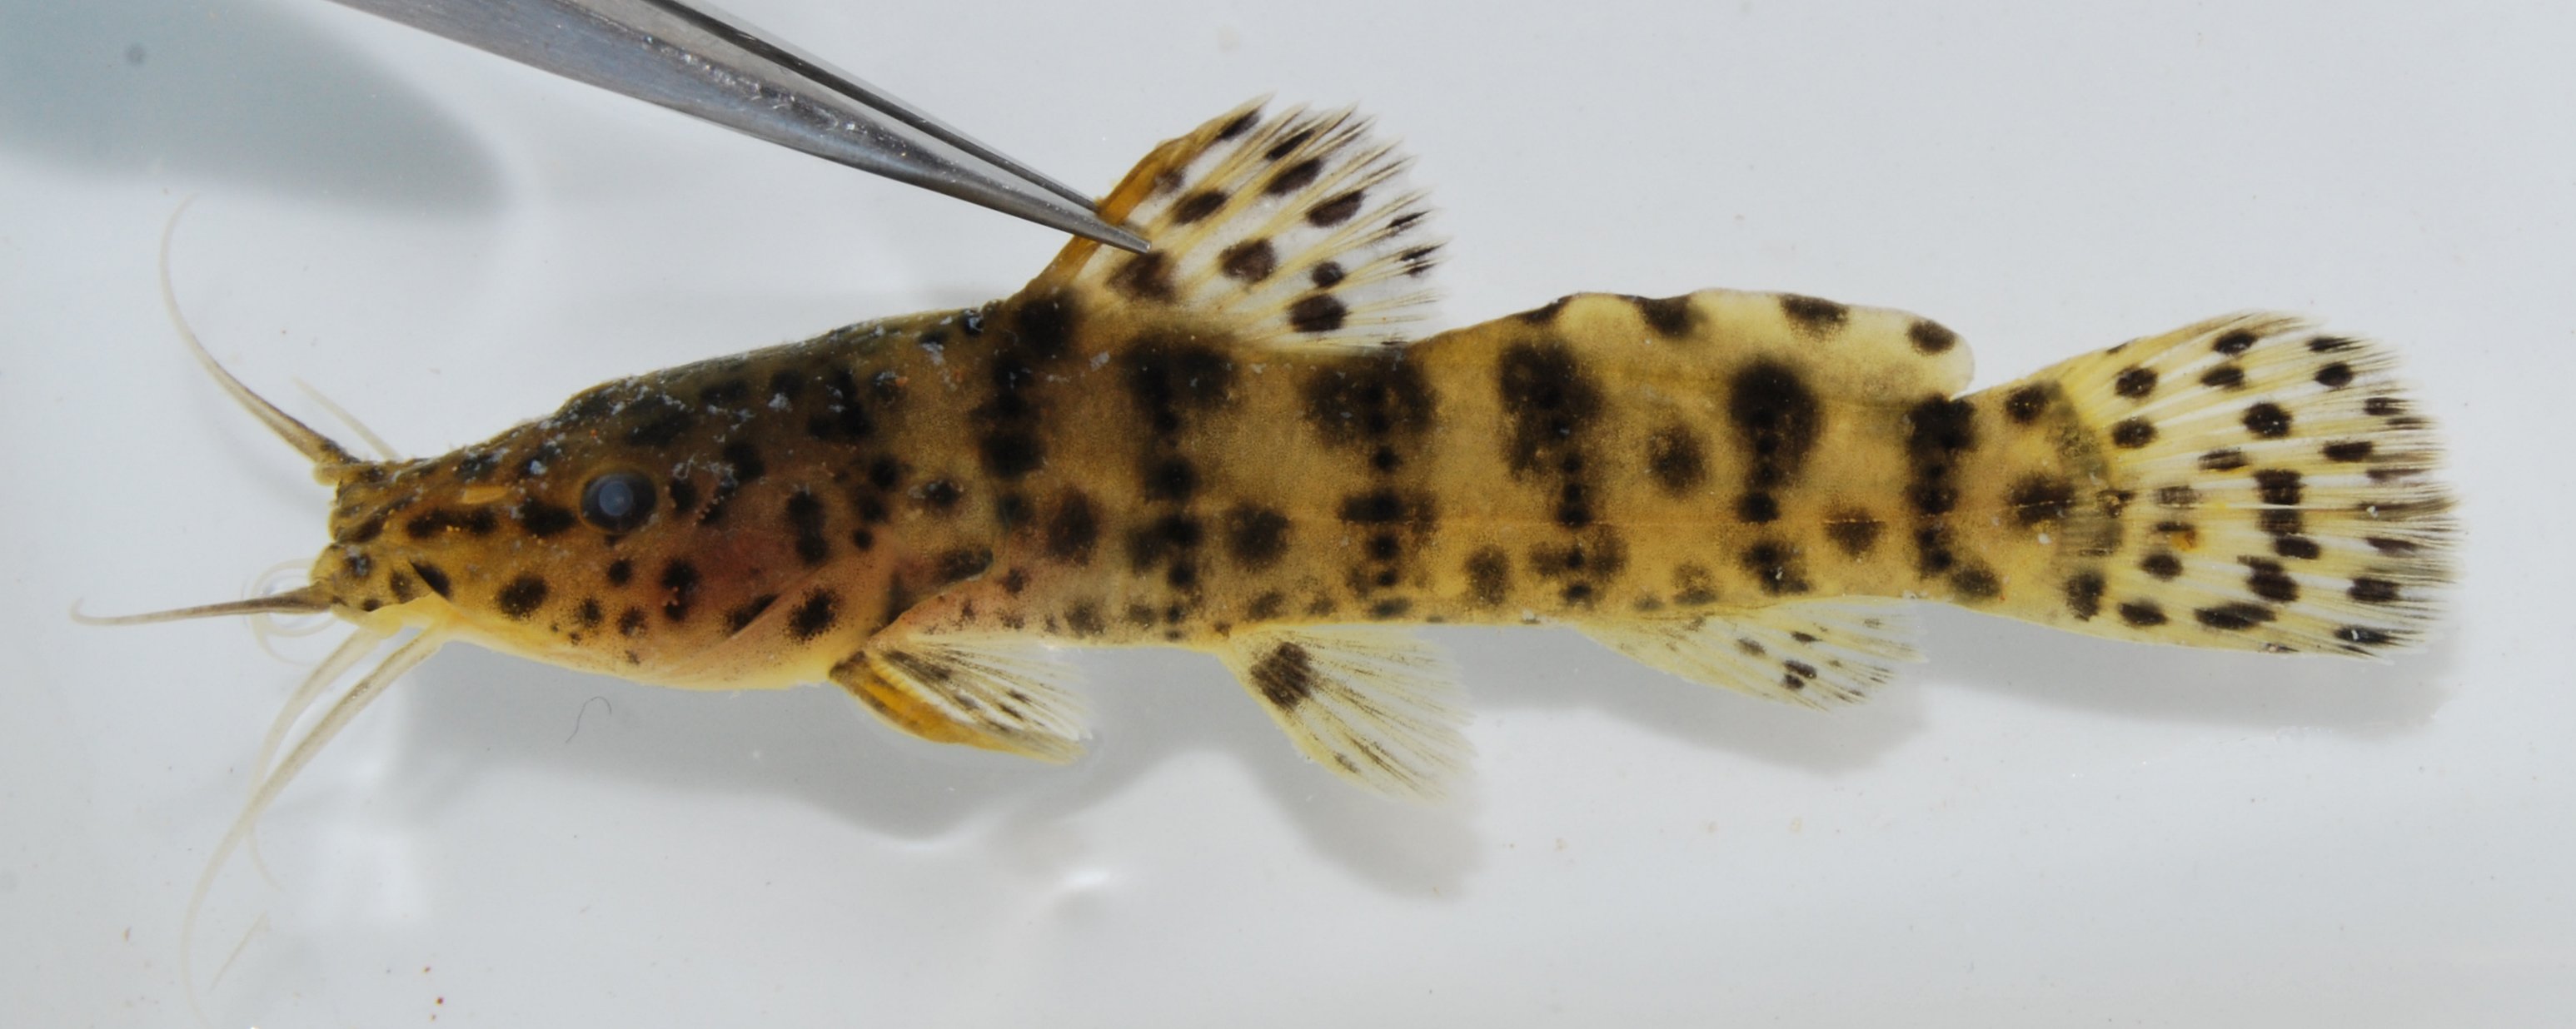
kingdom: Animalia
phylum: Chordata
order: Siluriformes
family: Claroteidae
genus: Parauchenoglanis
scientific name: Parauchenoglanis ngamensis
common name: Zambezi grunter
